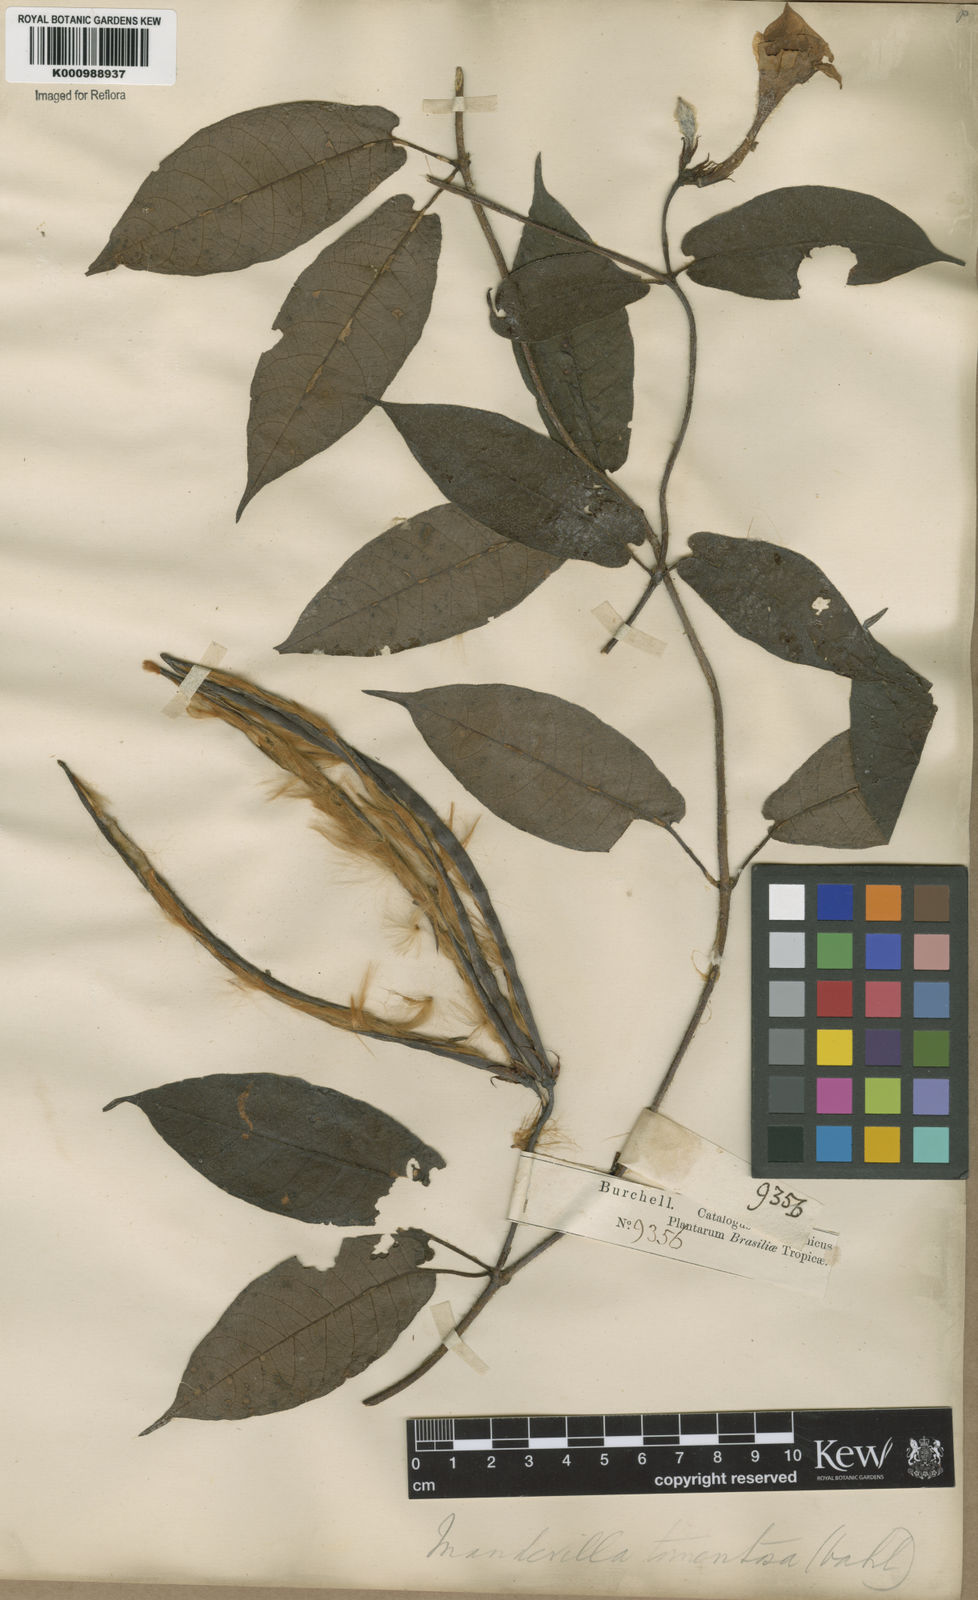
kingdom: Plantae
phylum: Tracheophyta
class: Magnoliopsida
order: Gentianales
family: Apocynaceae
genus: Mandevilla
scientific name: Mandevilla hirsuta
